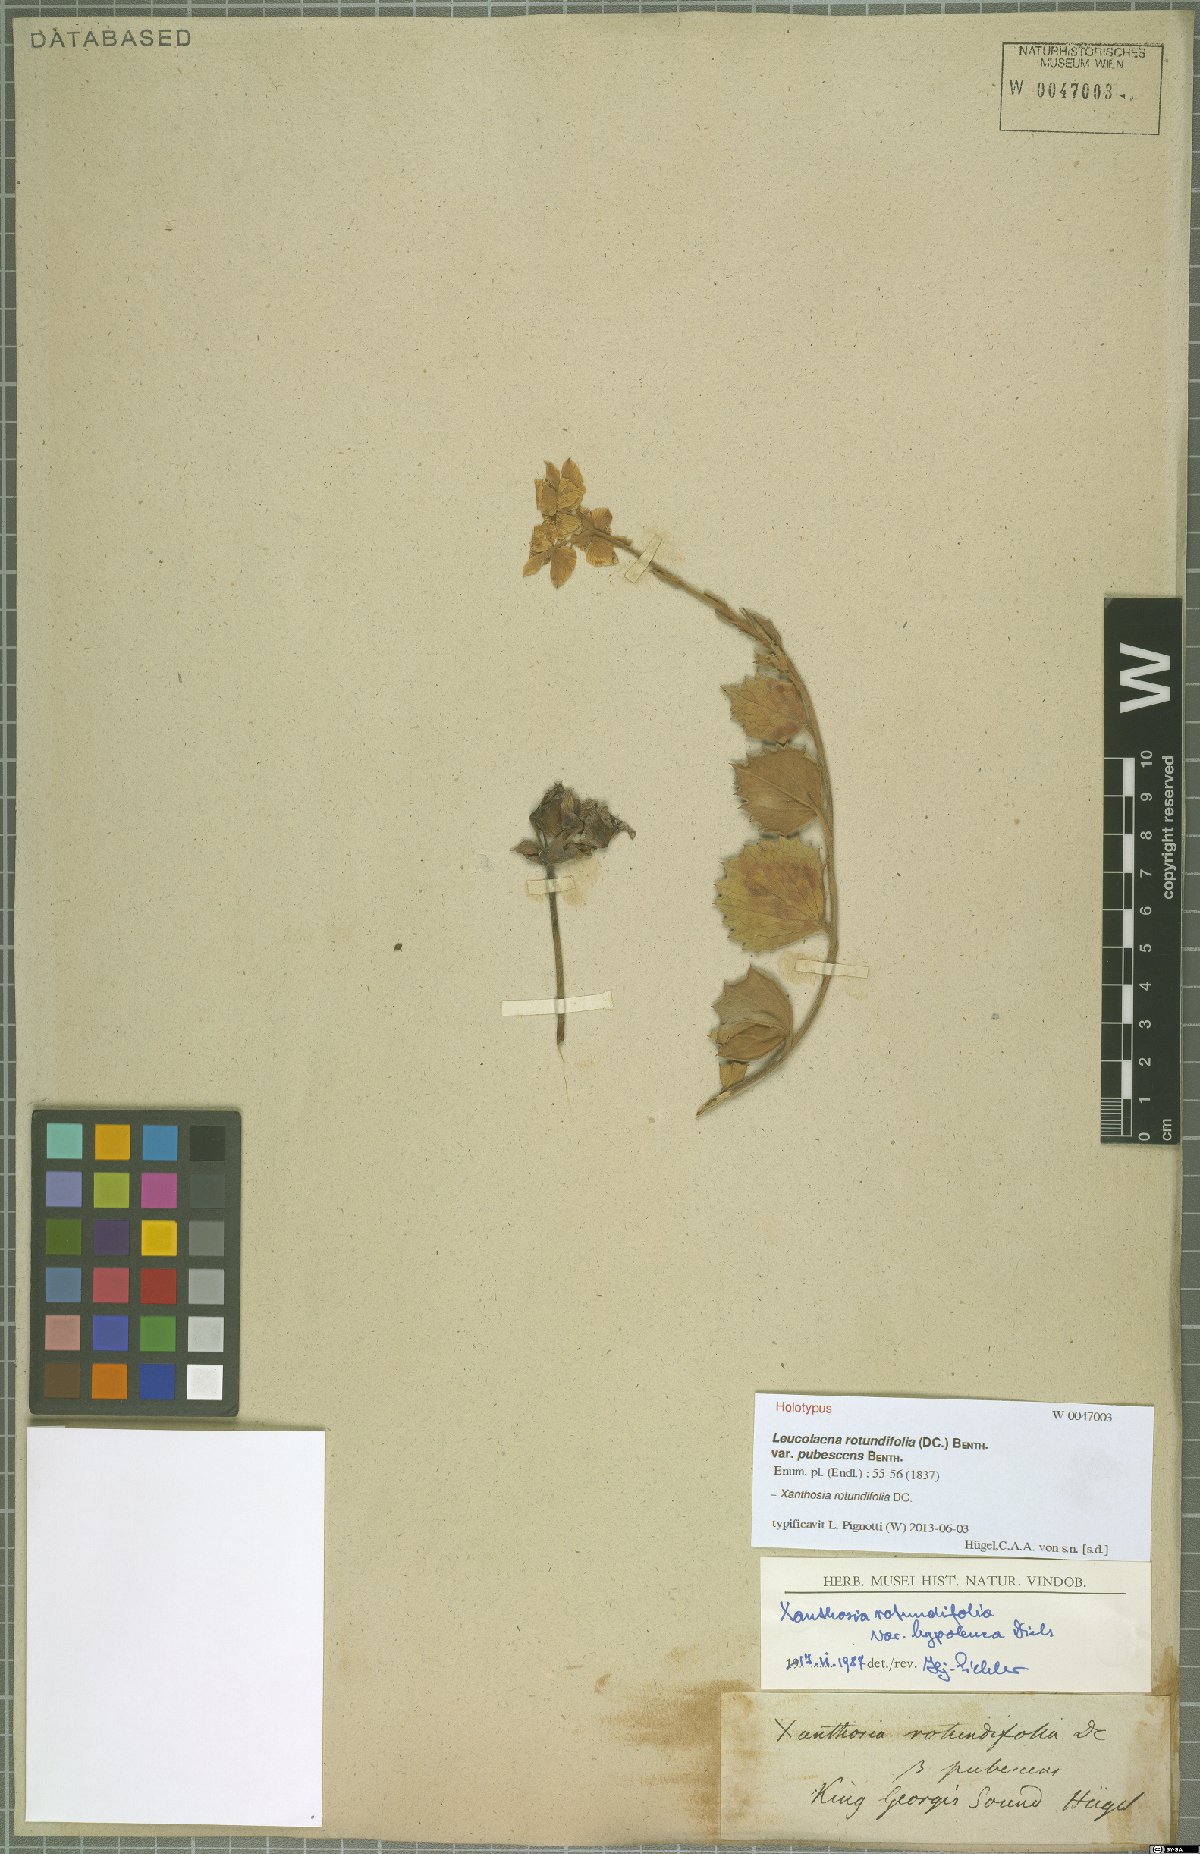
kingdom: Plantae
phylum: Tracheophyta
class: Magnoliopsida
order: Apiales
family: Apiaceae
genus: Xanthosia
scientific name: Xanthosia rotundifolia
